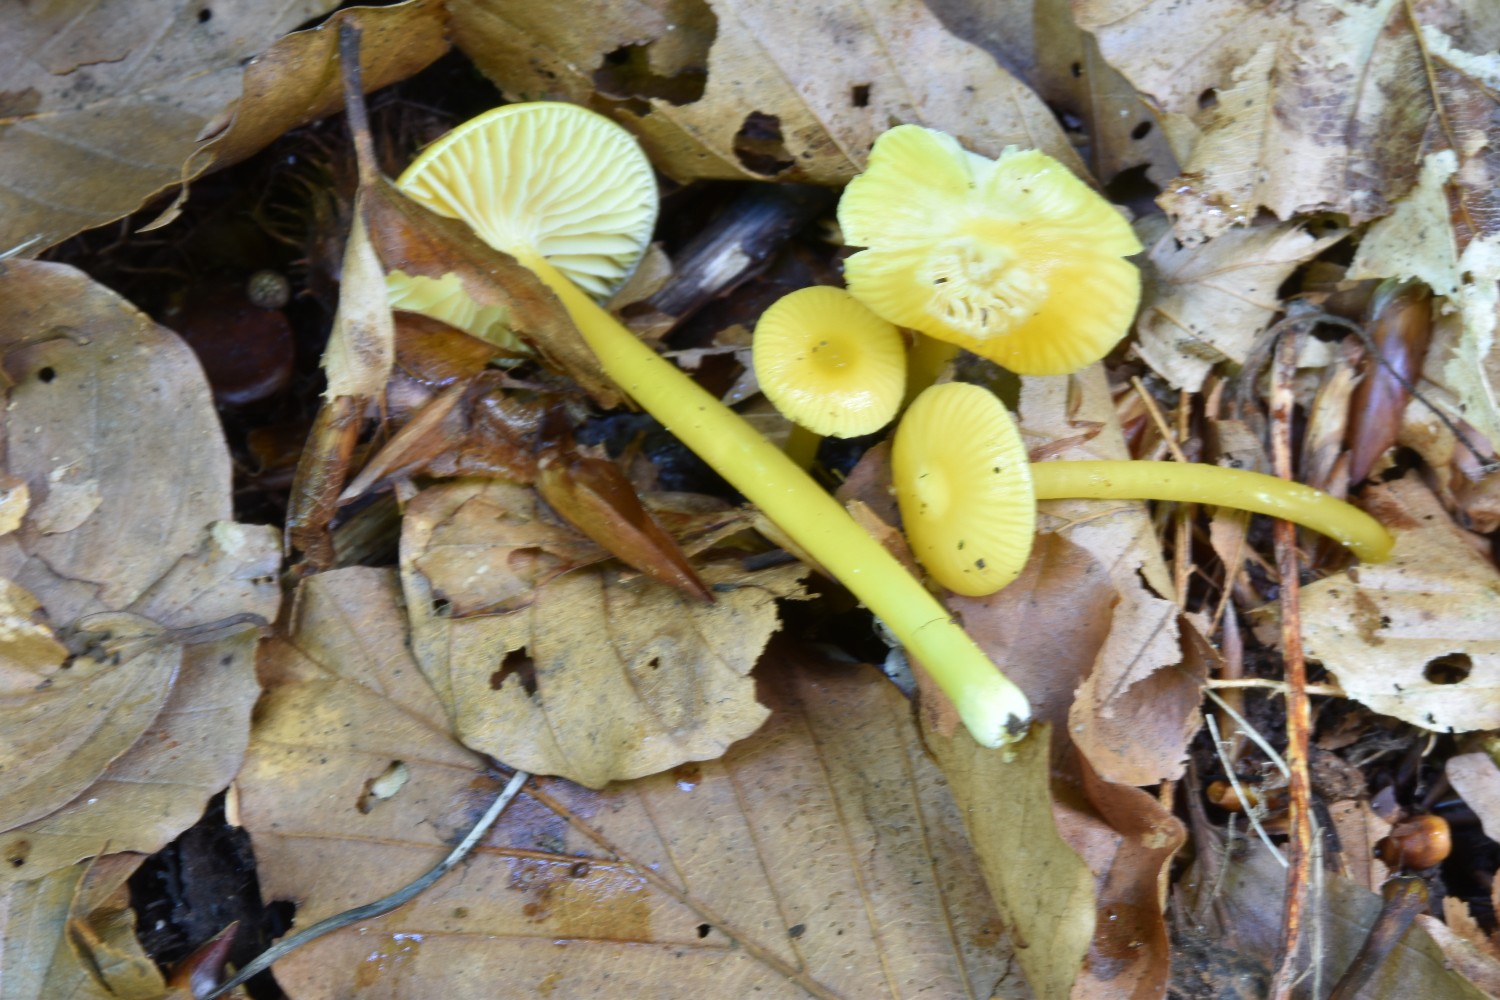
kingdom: Fungi
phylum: Basidiomycota
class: Agaricomycetes
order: Agaricales
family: Hygrophoraceae
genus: Hygrocybe
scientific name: Hygrocybe glutinipes
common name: slimstokket vokshat
